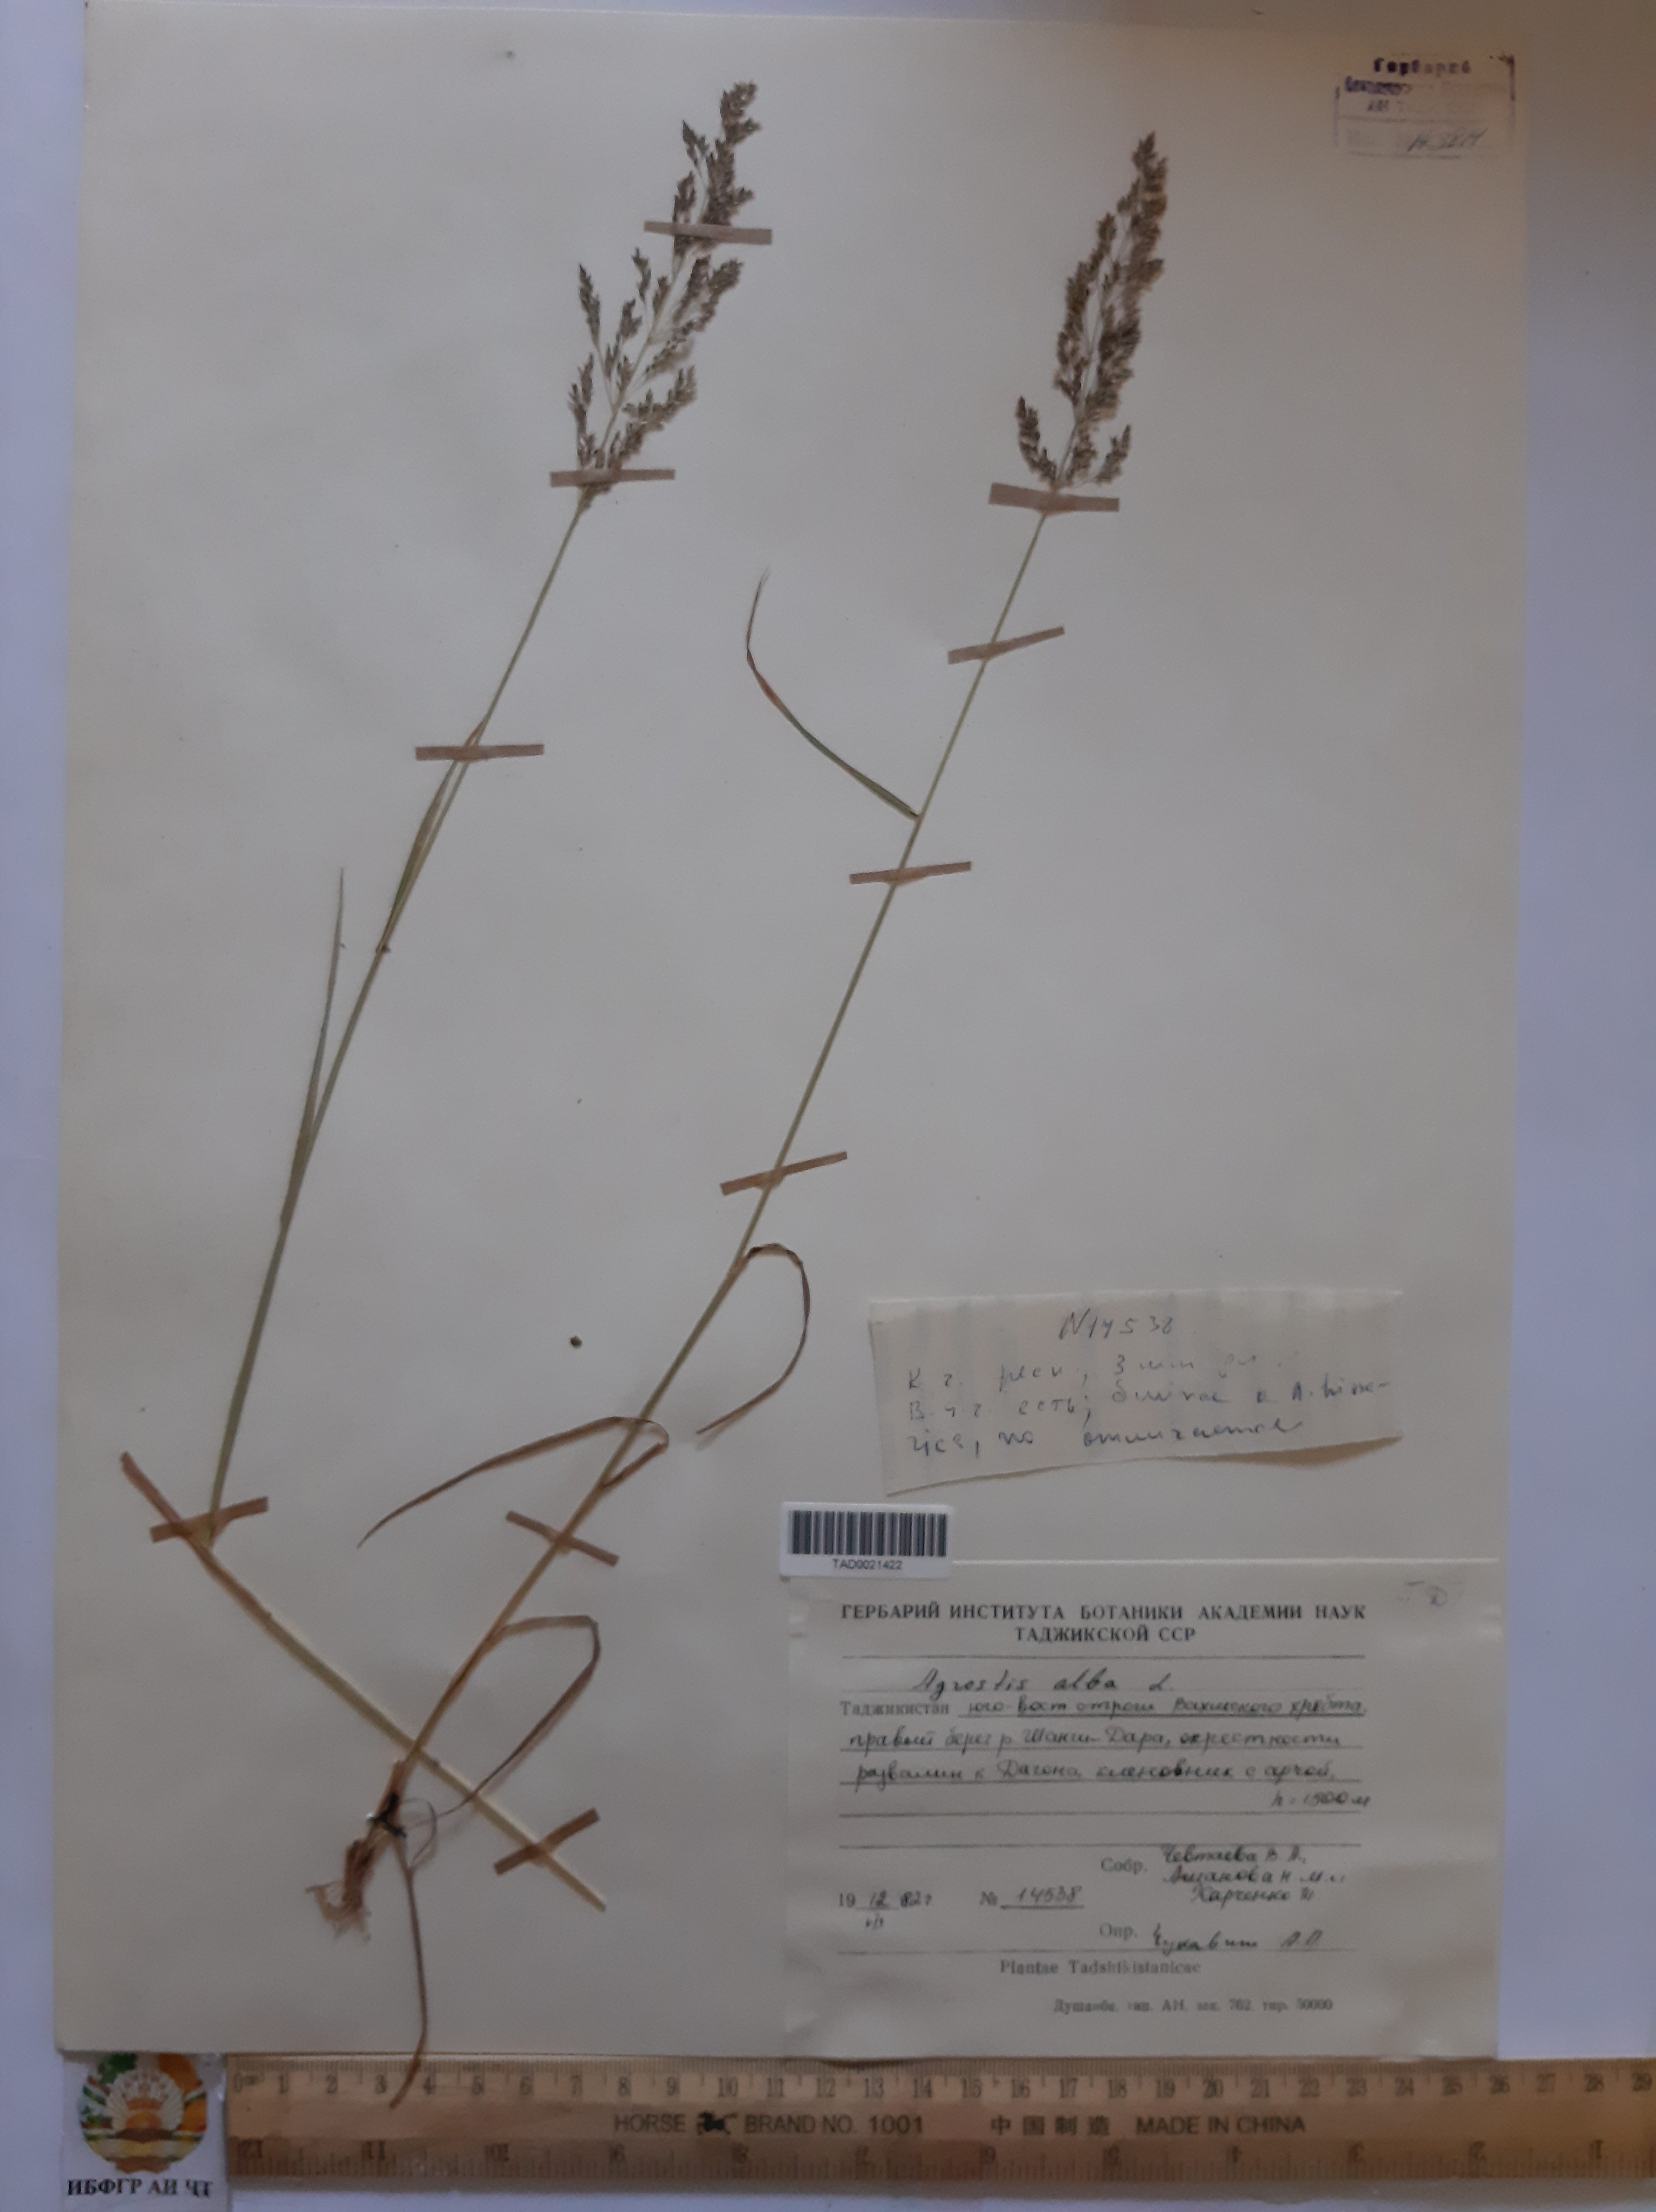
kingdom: Plantae
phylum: Tracheophyta
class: Liliopsida
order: Poales
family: Poaceae
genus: Poa
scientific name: Poa nemoralis
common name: Wood bluegrass
